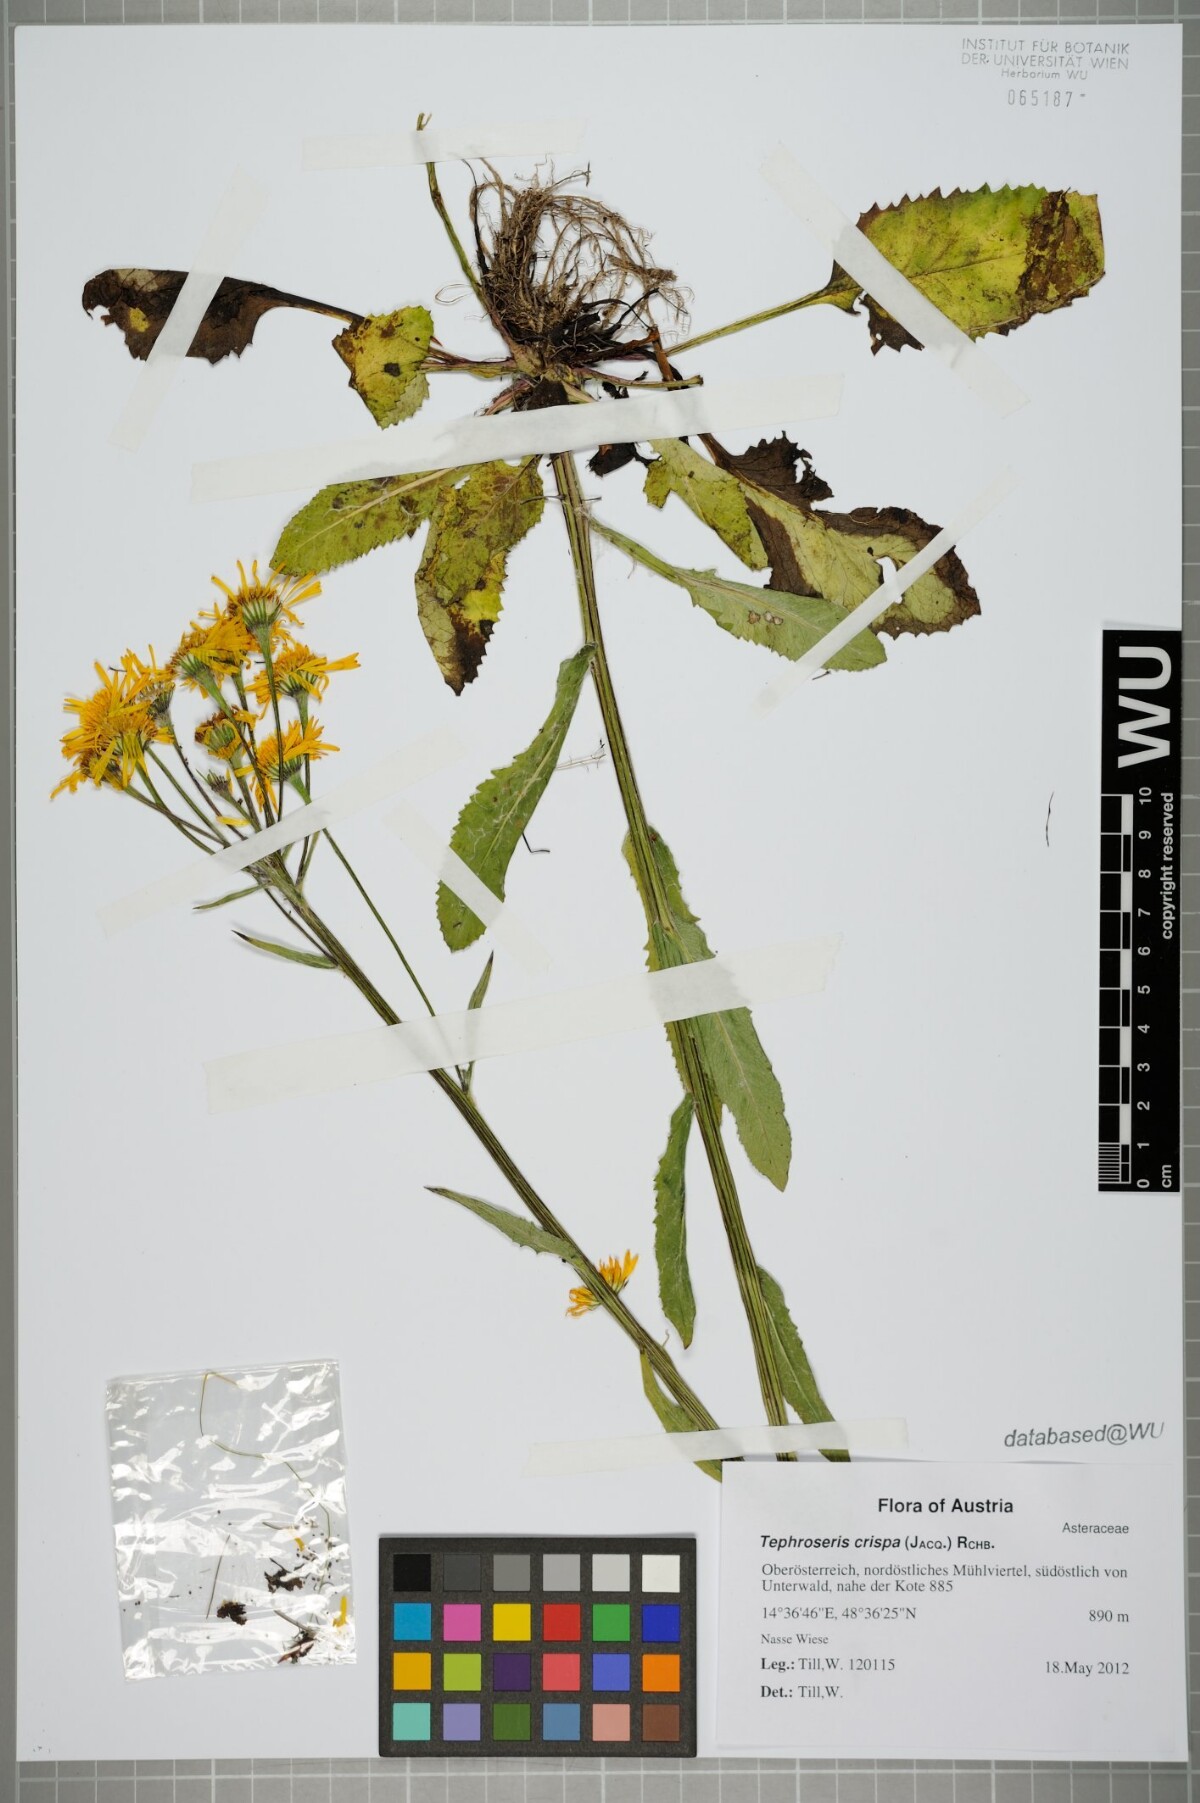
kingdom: Plantae
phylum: Tracheophyta
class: Magnoliopsida
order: Asterales
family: Asteraceae
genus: Tephroseris
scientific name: Tephroseris crispa
